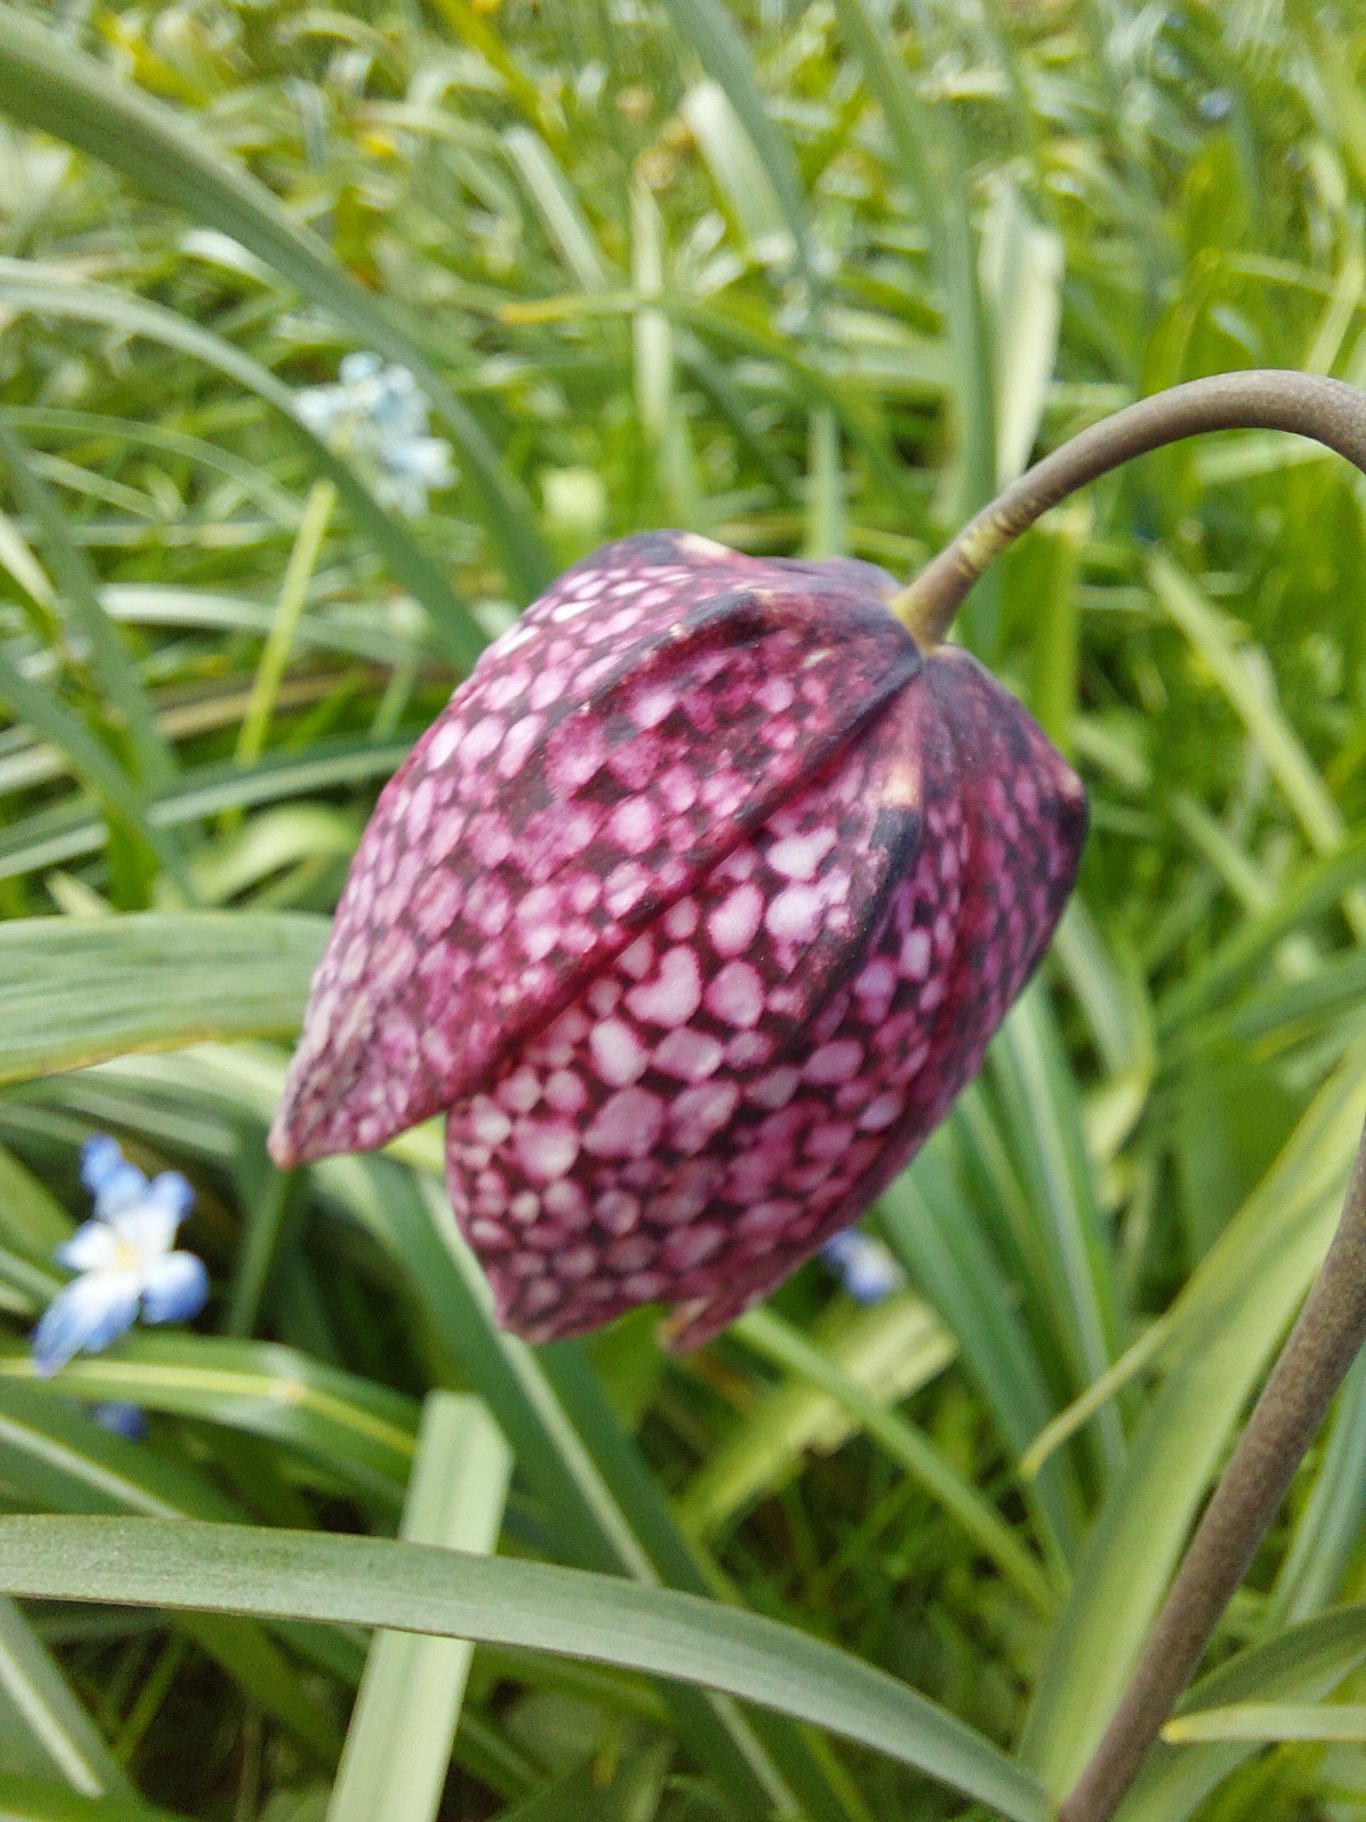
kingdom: Plantae
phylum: Tracheophyta
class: Liliopsida
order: Liliales
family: Liliaceae
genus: Fritillaria
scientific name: Fritillaria meleagris
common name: Vibeæg
